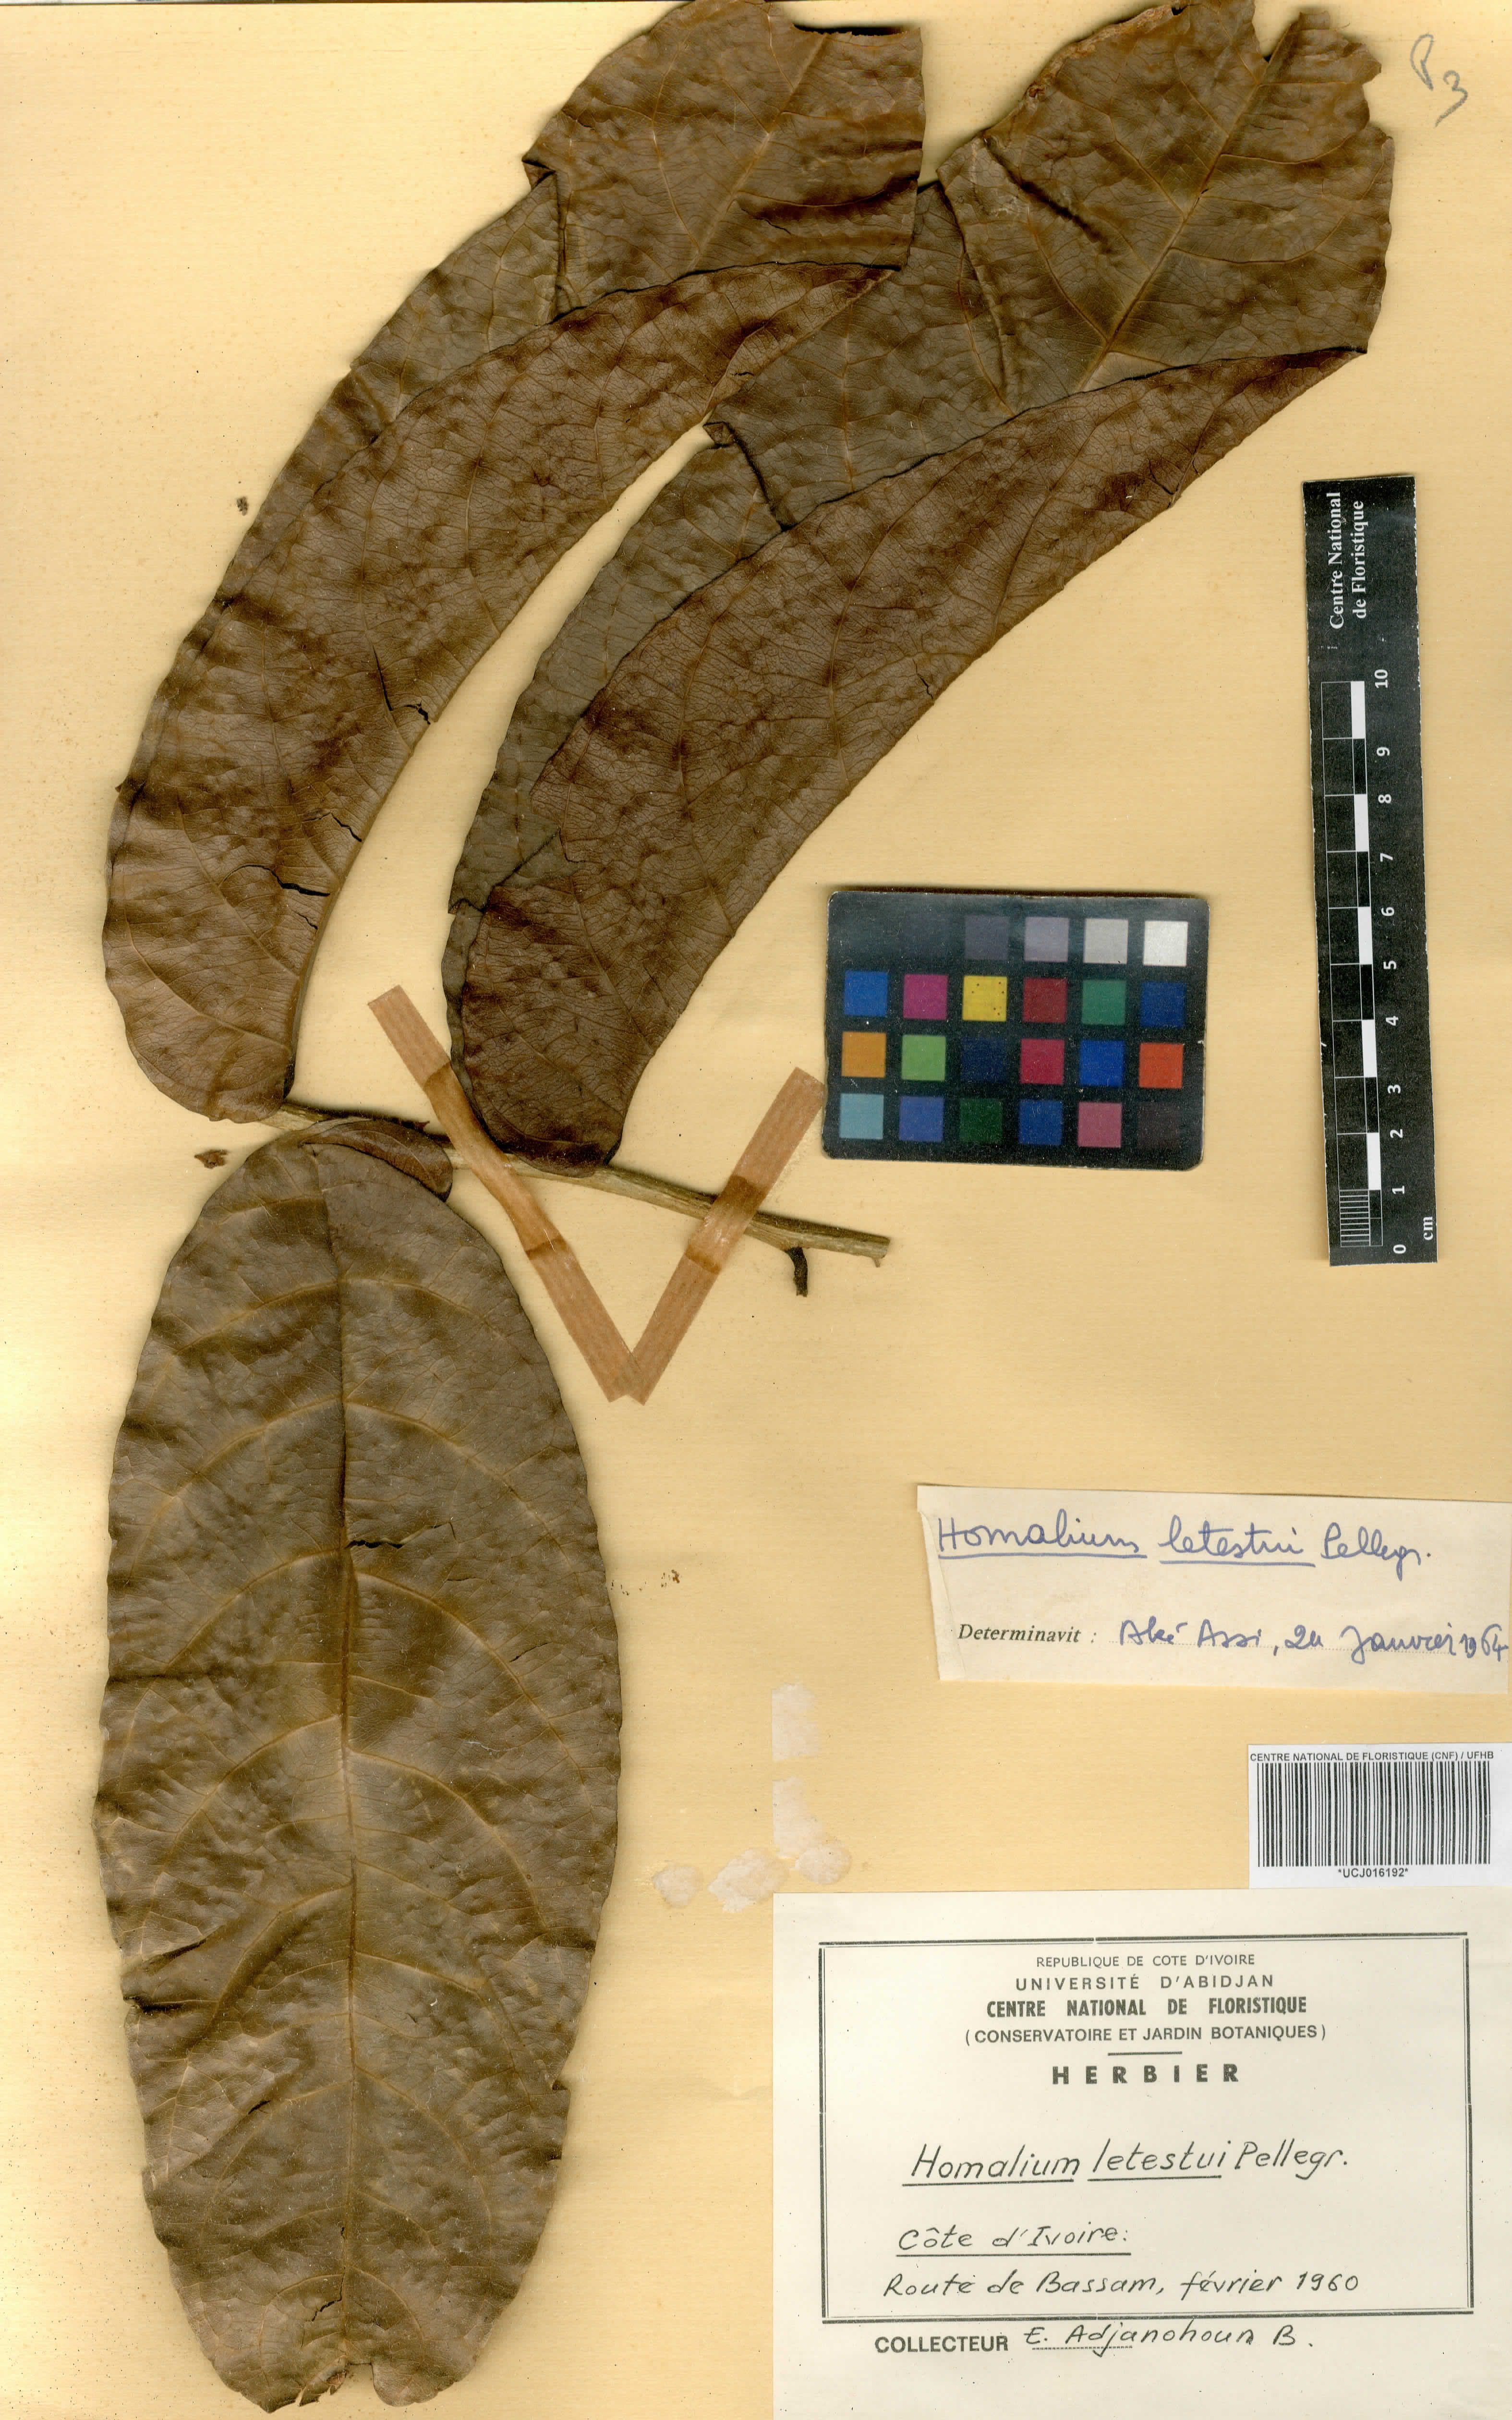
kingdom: Plantae
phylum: Tracheophyta
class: Magnoliopsida
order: Malpighiales
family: Salicaceae
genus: Homalium
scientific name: Homalium letestui
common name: African homalium
